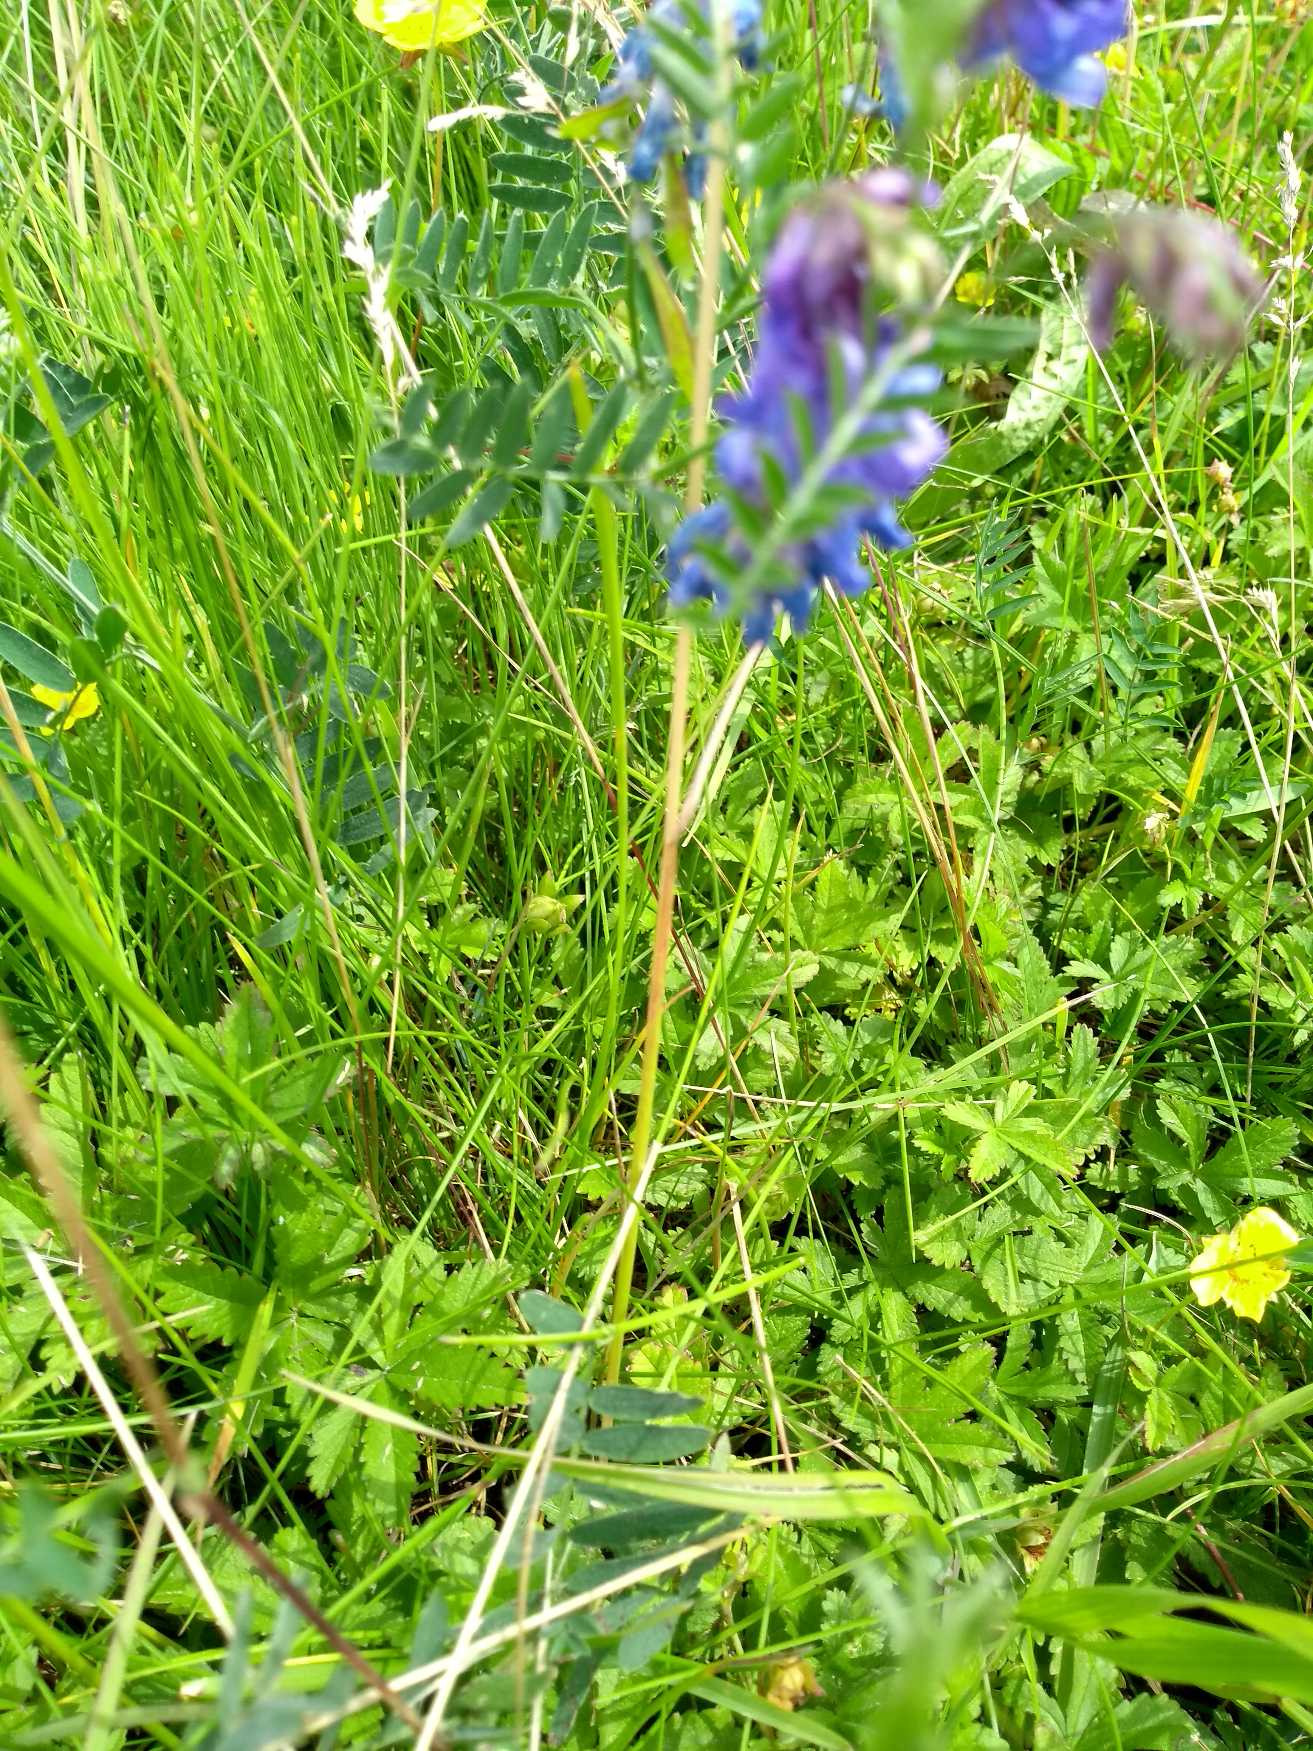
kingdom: Plantae
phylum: Tracheophyta
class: Magnoliopsida
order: Fabales
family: Fabaceae
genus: Vicia
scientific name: Vicia cracca
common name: Muse-vikke
